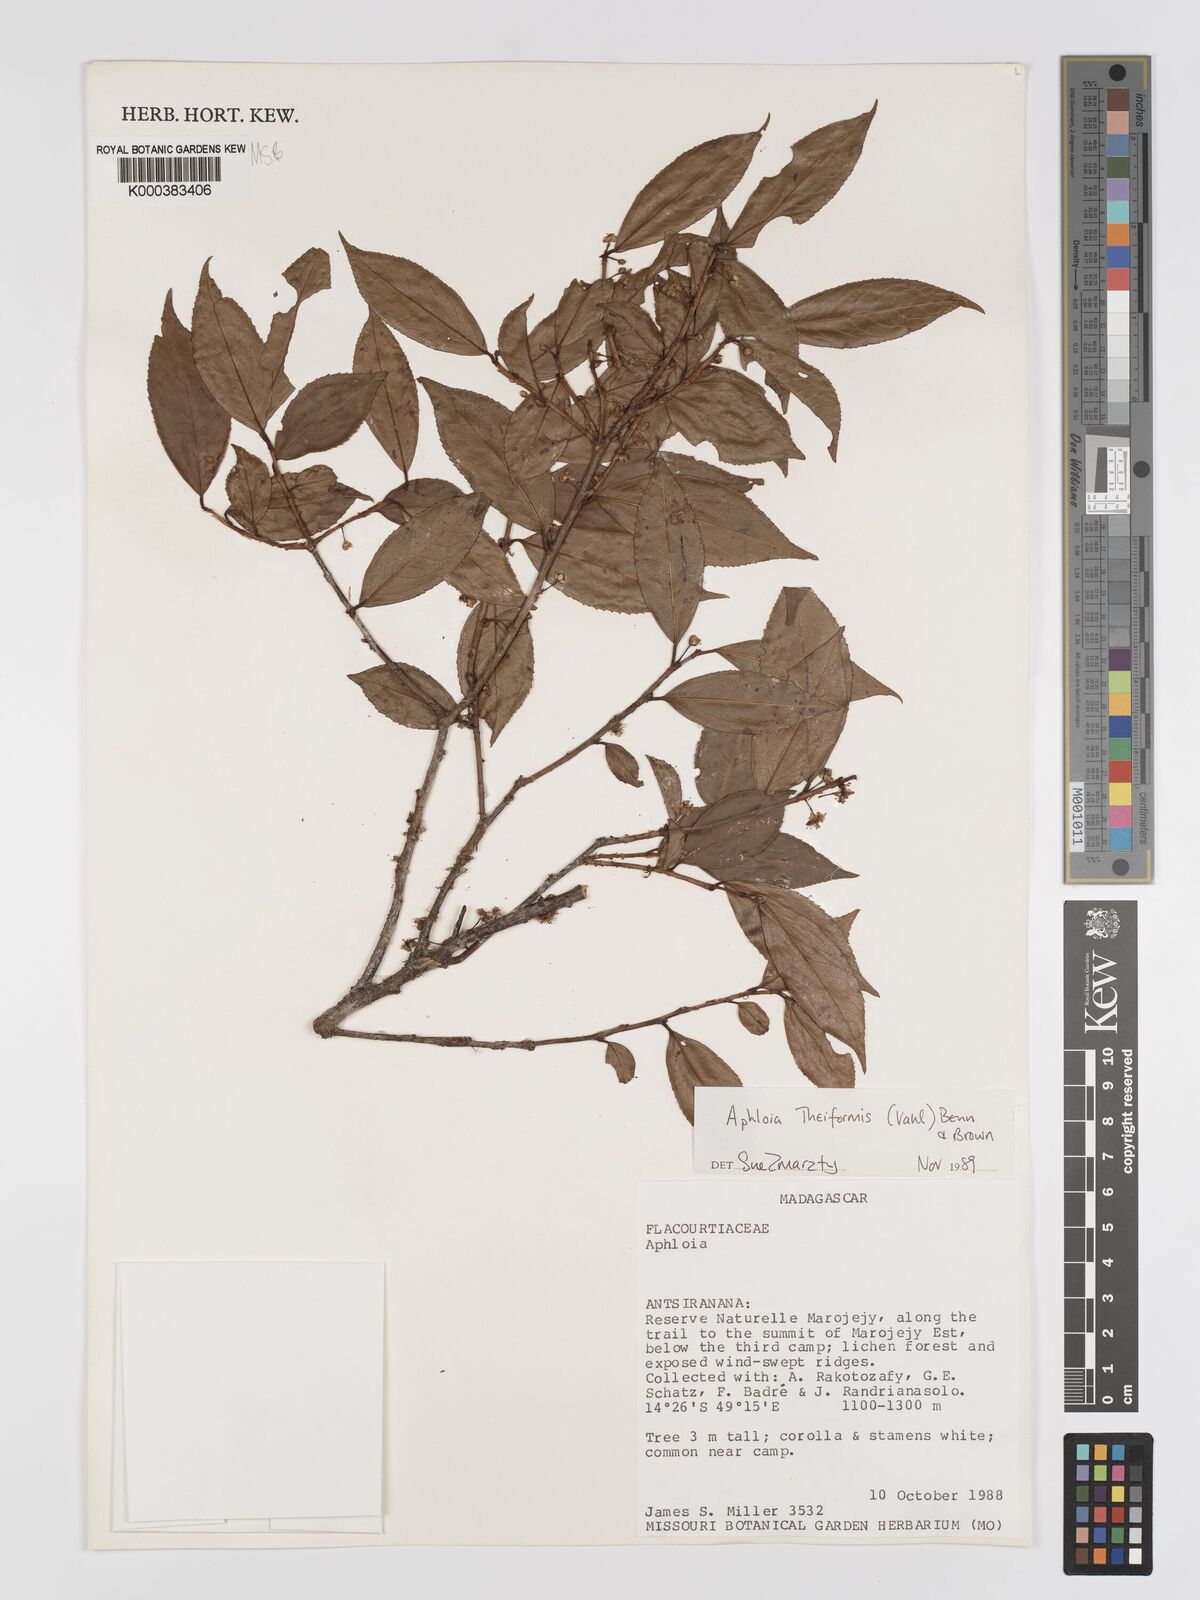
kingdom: Plantae
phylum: Tracheophyta
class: Magnoliopsida
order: Crossosomatales
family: Aphloiaceae
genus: Aphloia
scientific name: Aphloia theiformis
